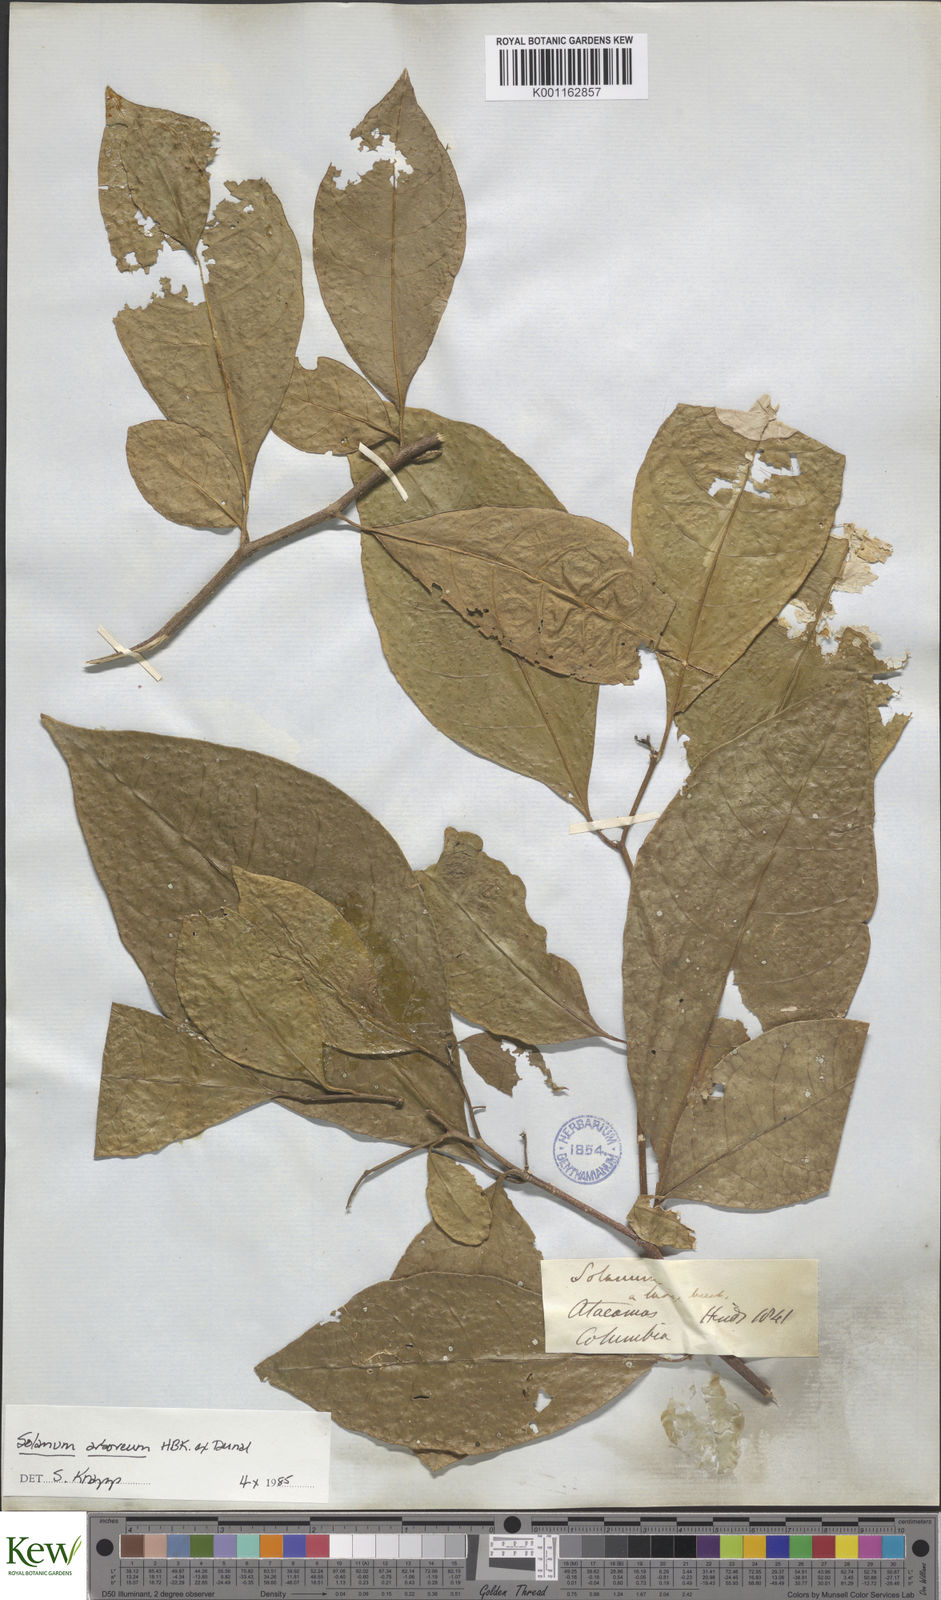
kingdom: Plantae
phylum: Tracheophyta
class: Magnoliopsida
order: Solanales
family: Solanaceae
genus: Solanum
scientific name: Solanum arboreum
